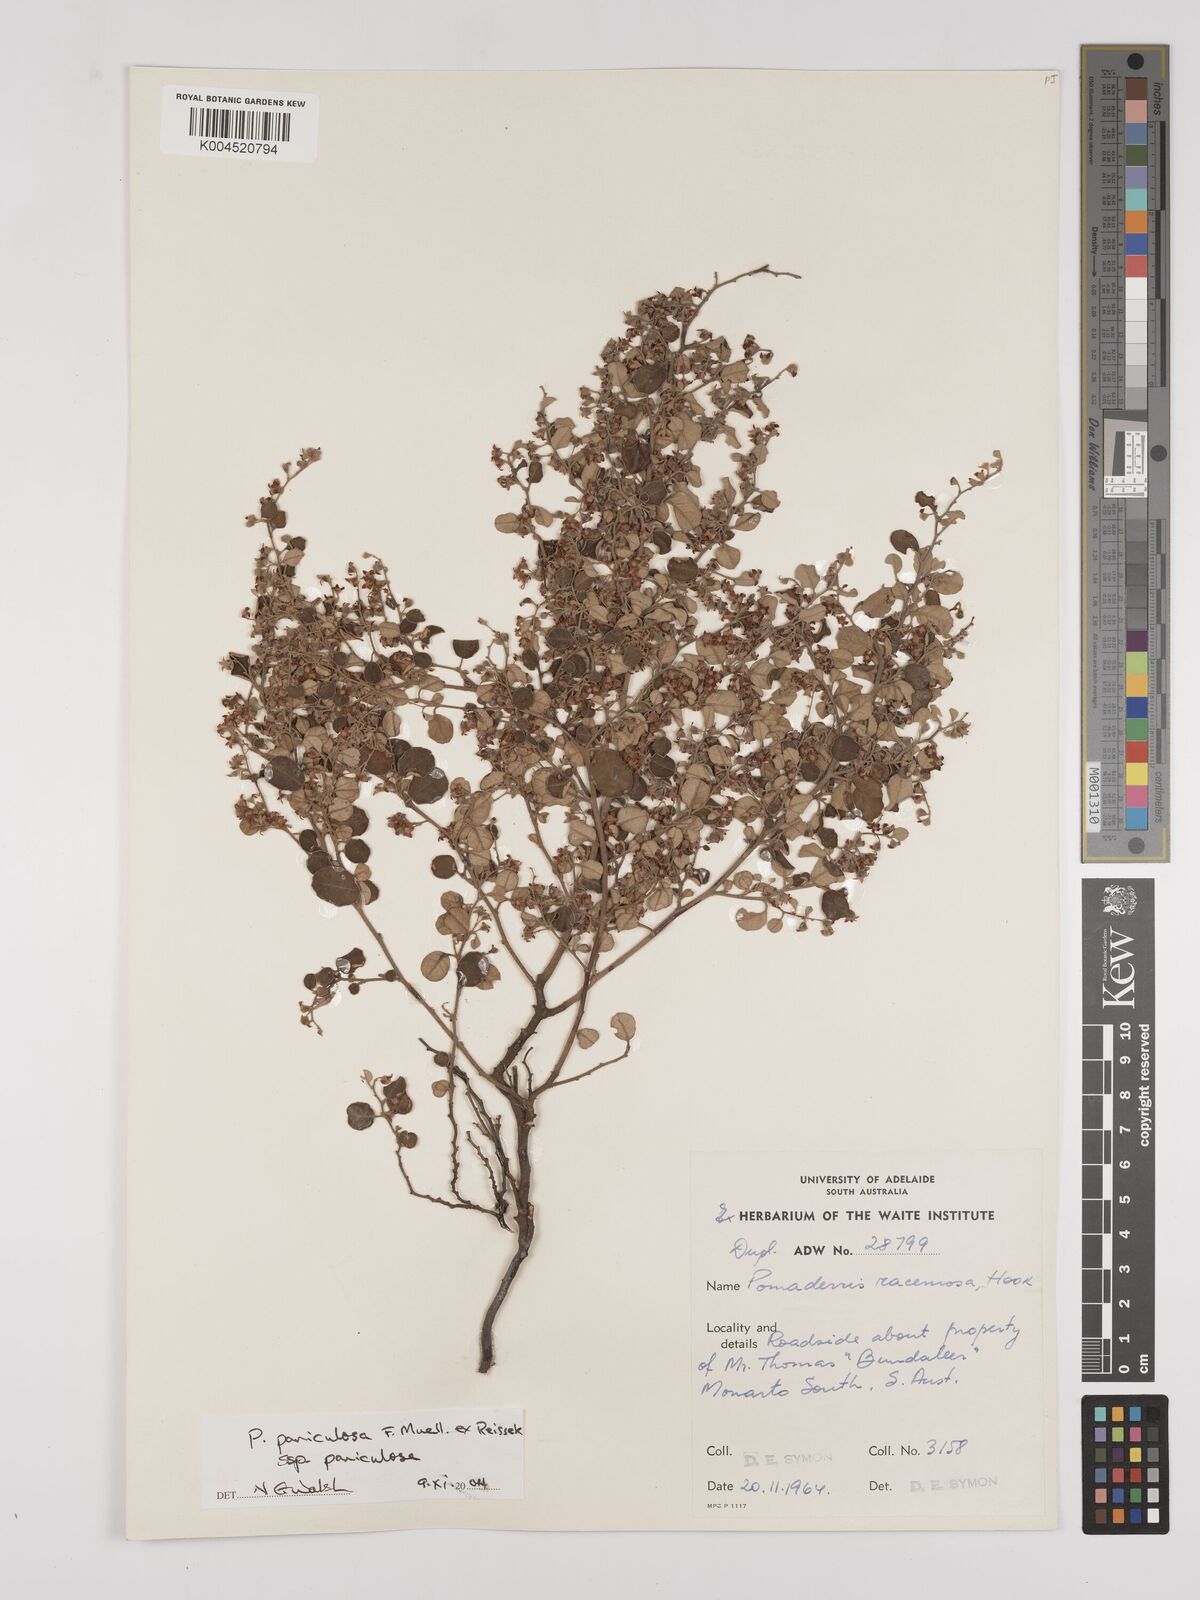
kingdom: Plantae
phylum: Tracheophyta
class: Magnoliopsida
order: Rosales
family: Rhamnaceae
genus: Pomaderris
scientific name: Pomaderris paniculosa
